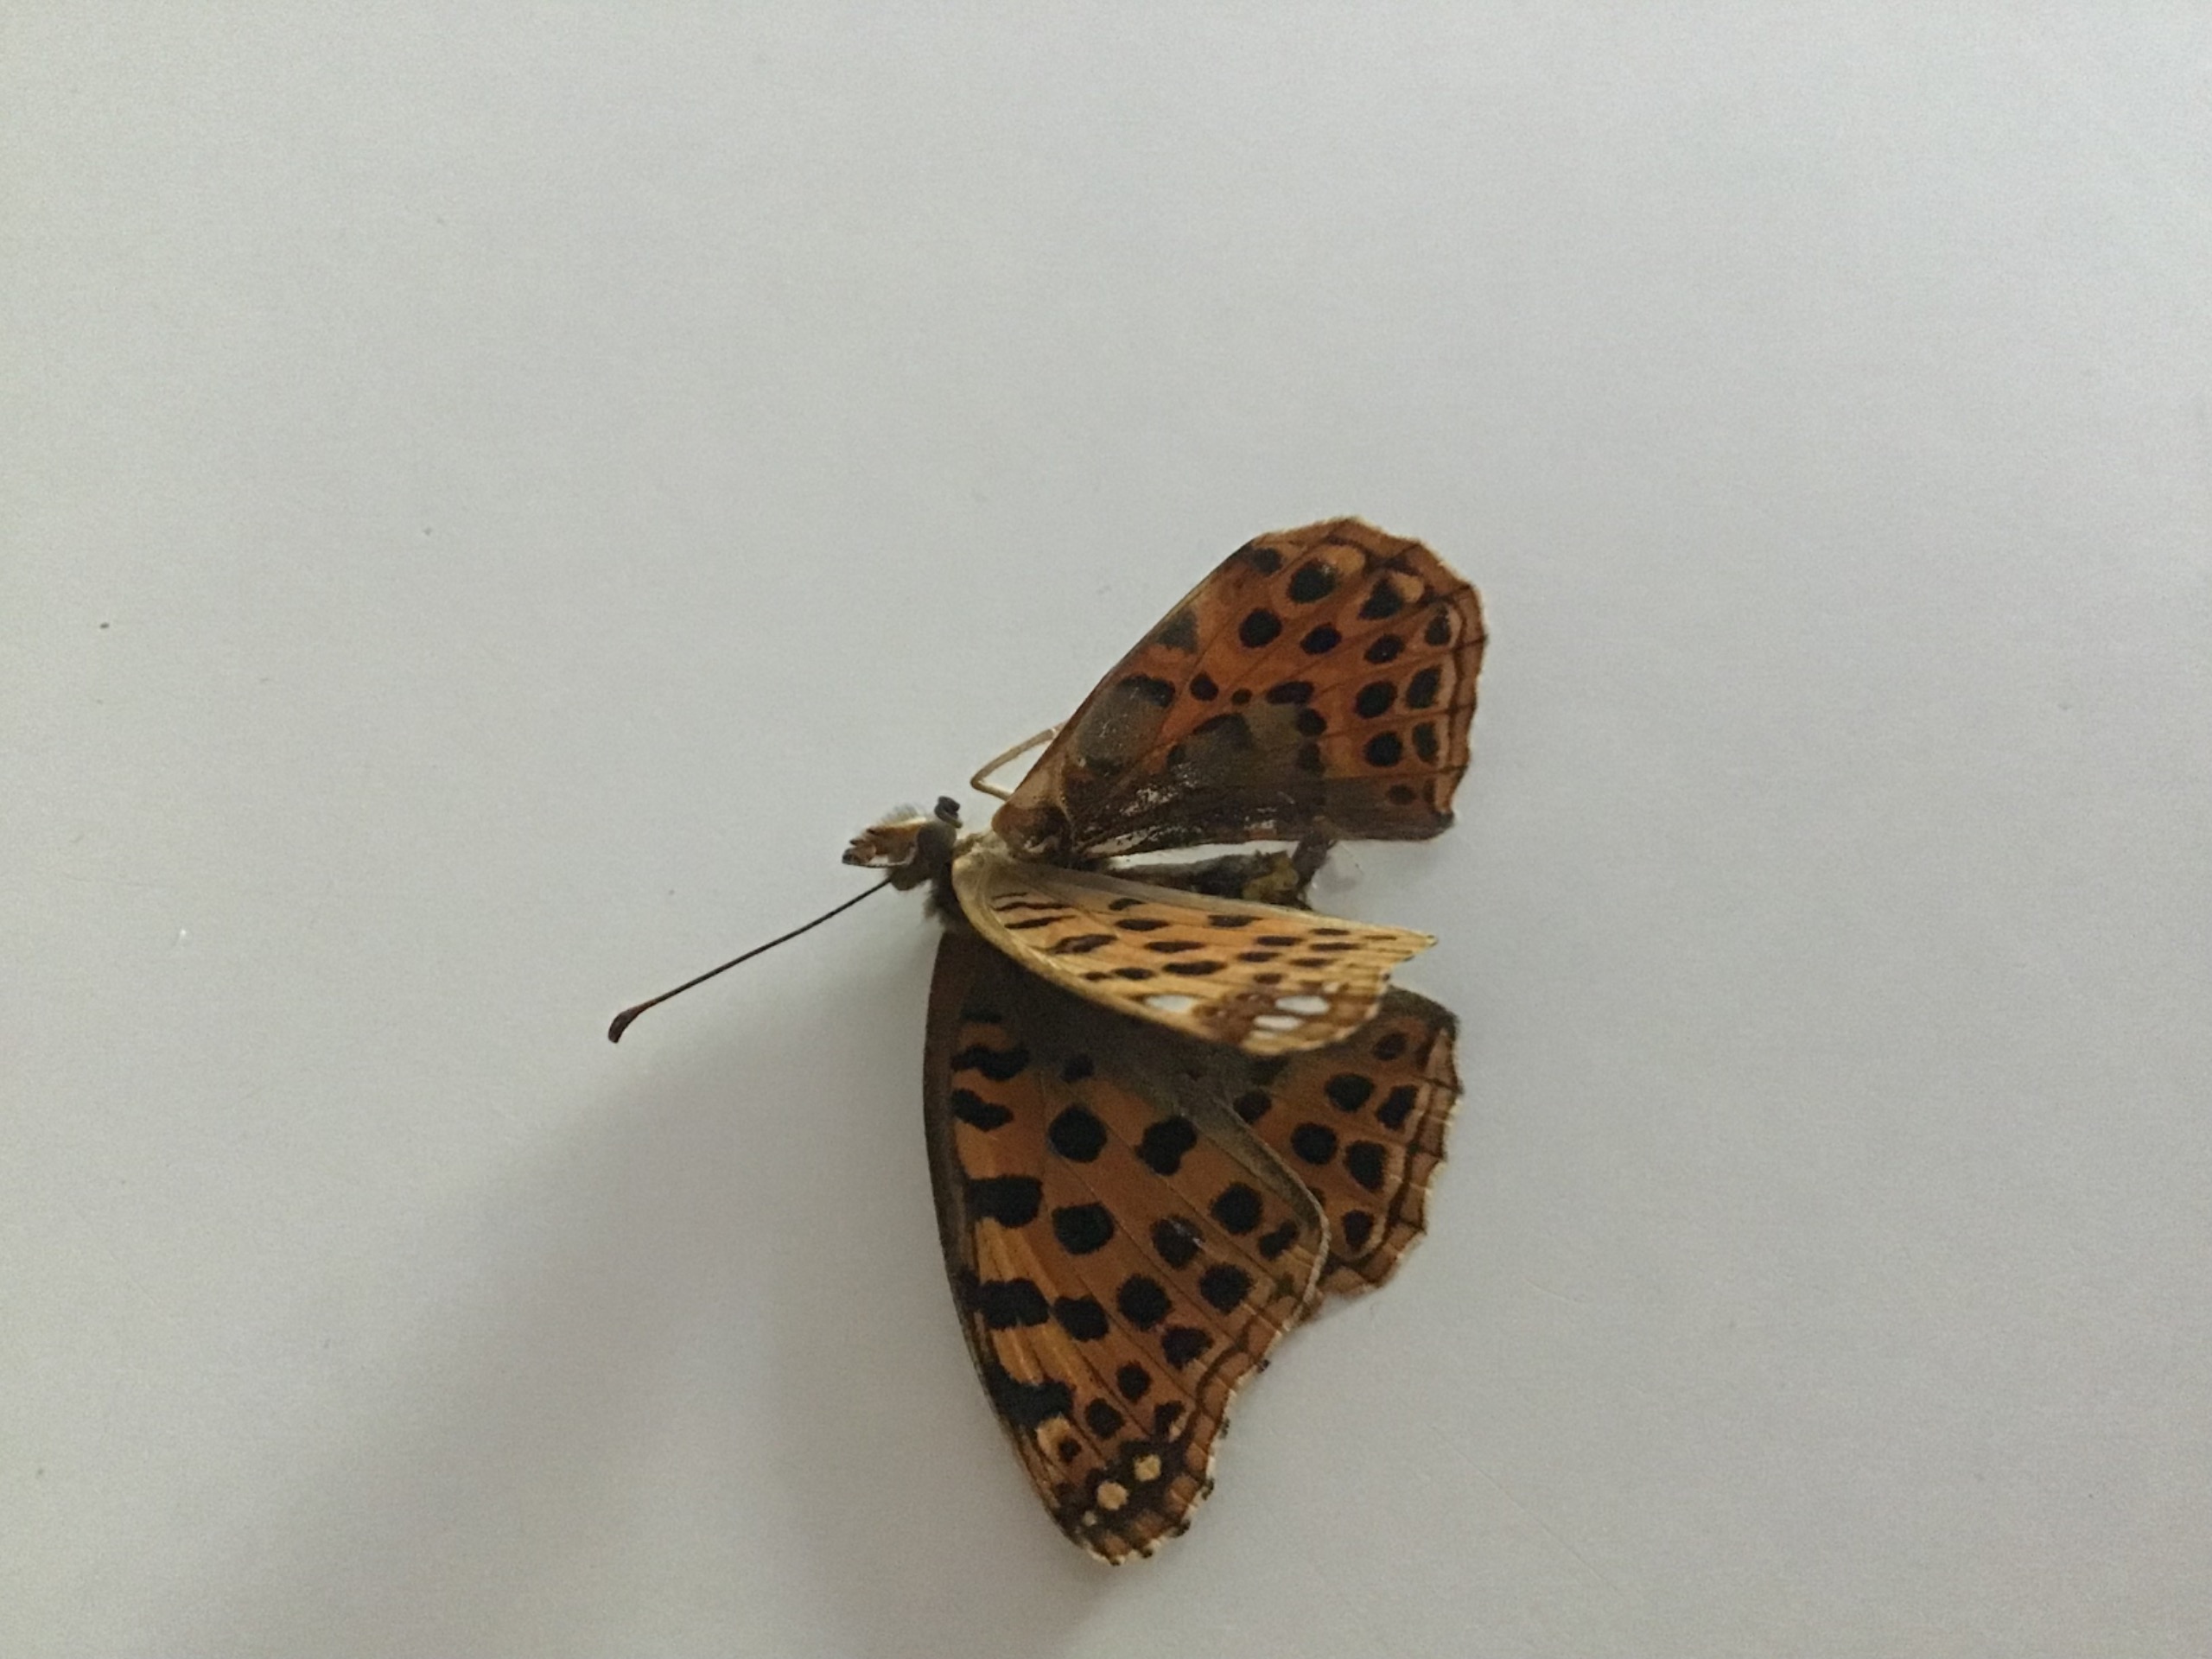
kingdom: Animalia
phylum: Arthropoda
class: Insecta
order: Lepidoptera
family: Nymphalidae
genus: Issoria
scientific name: Issoria lathonia
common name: Storplettet perlemorsommerfugl
